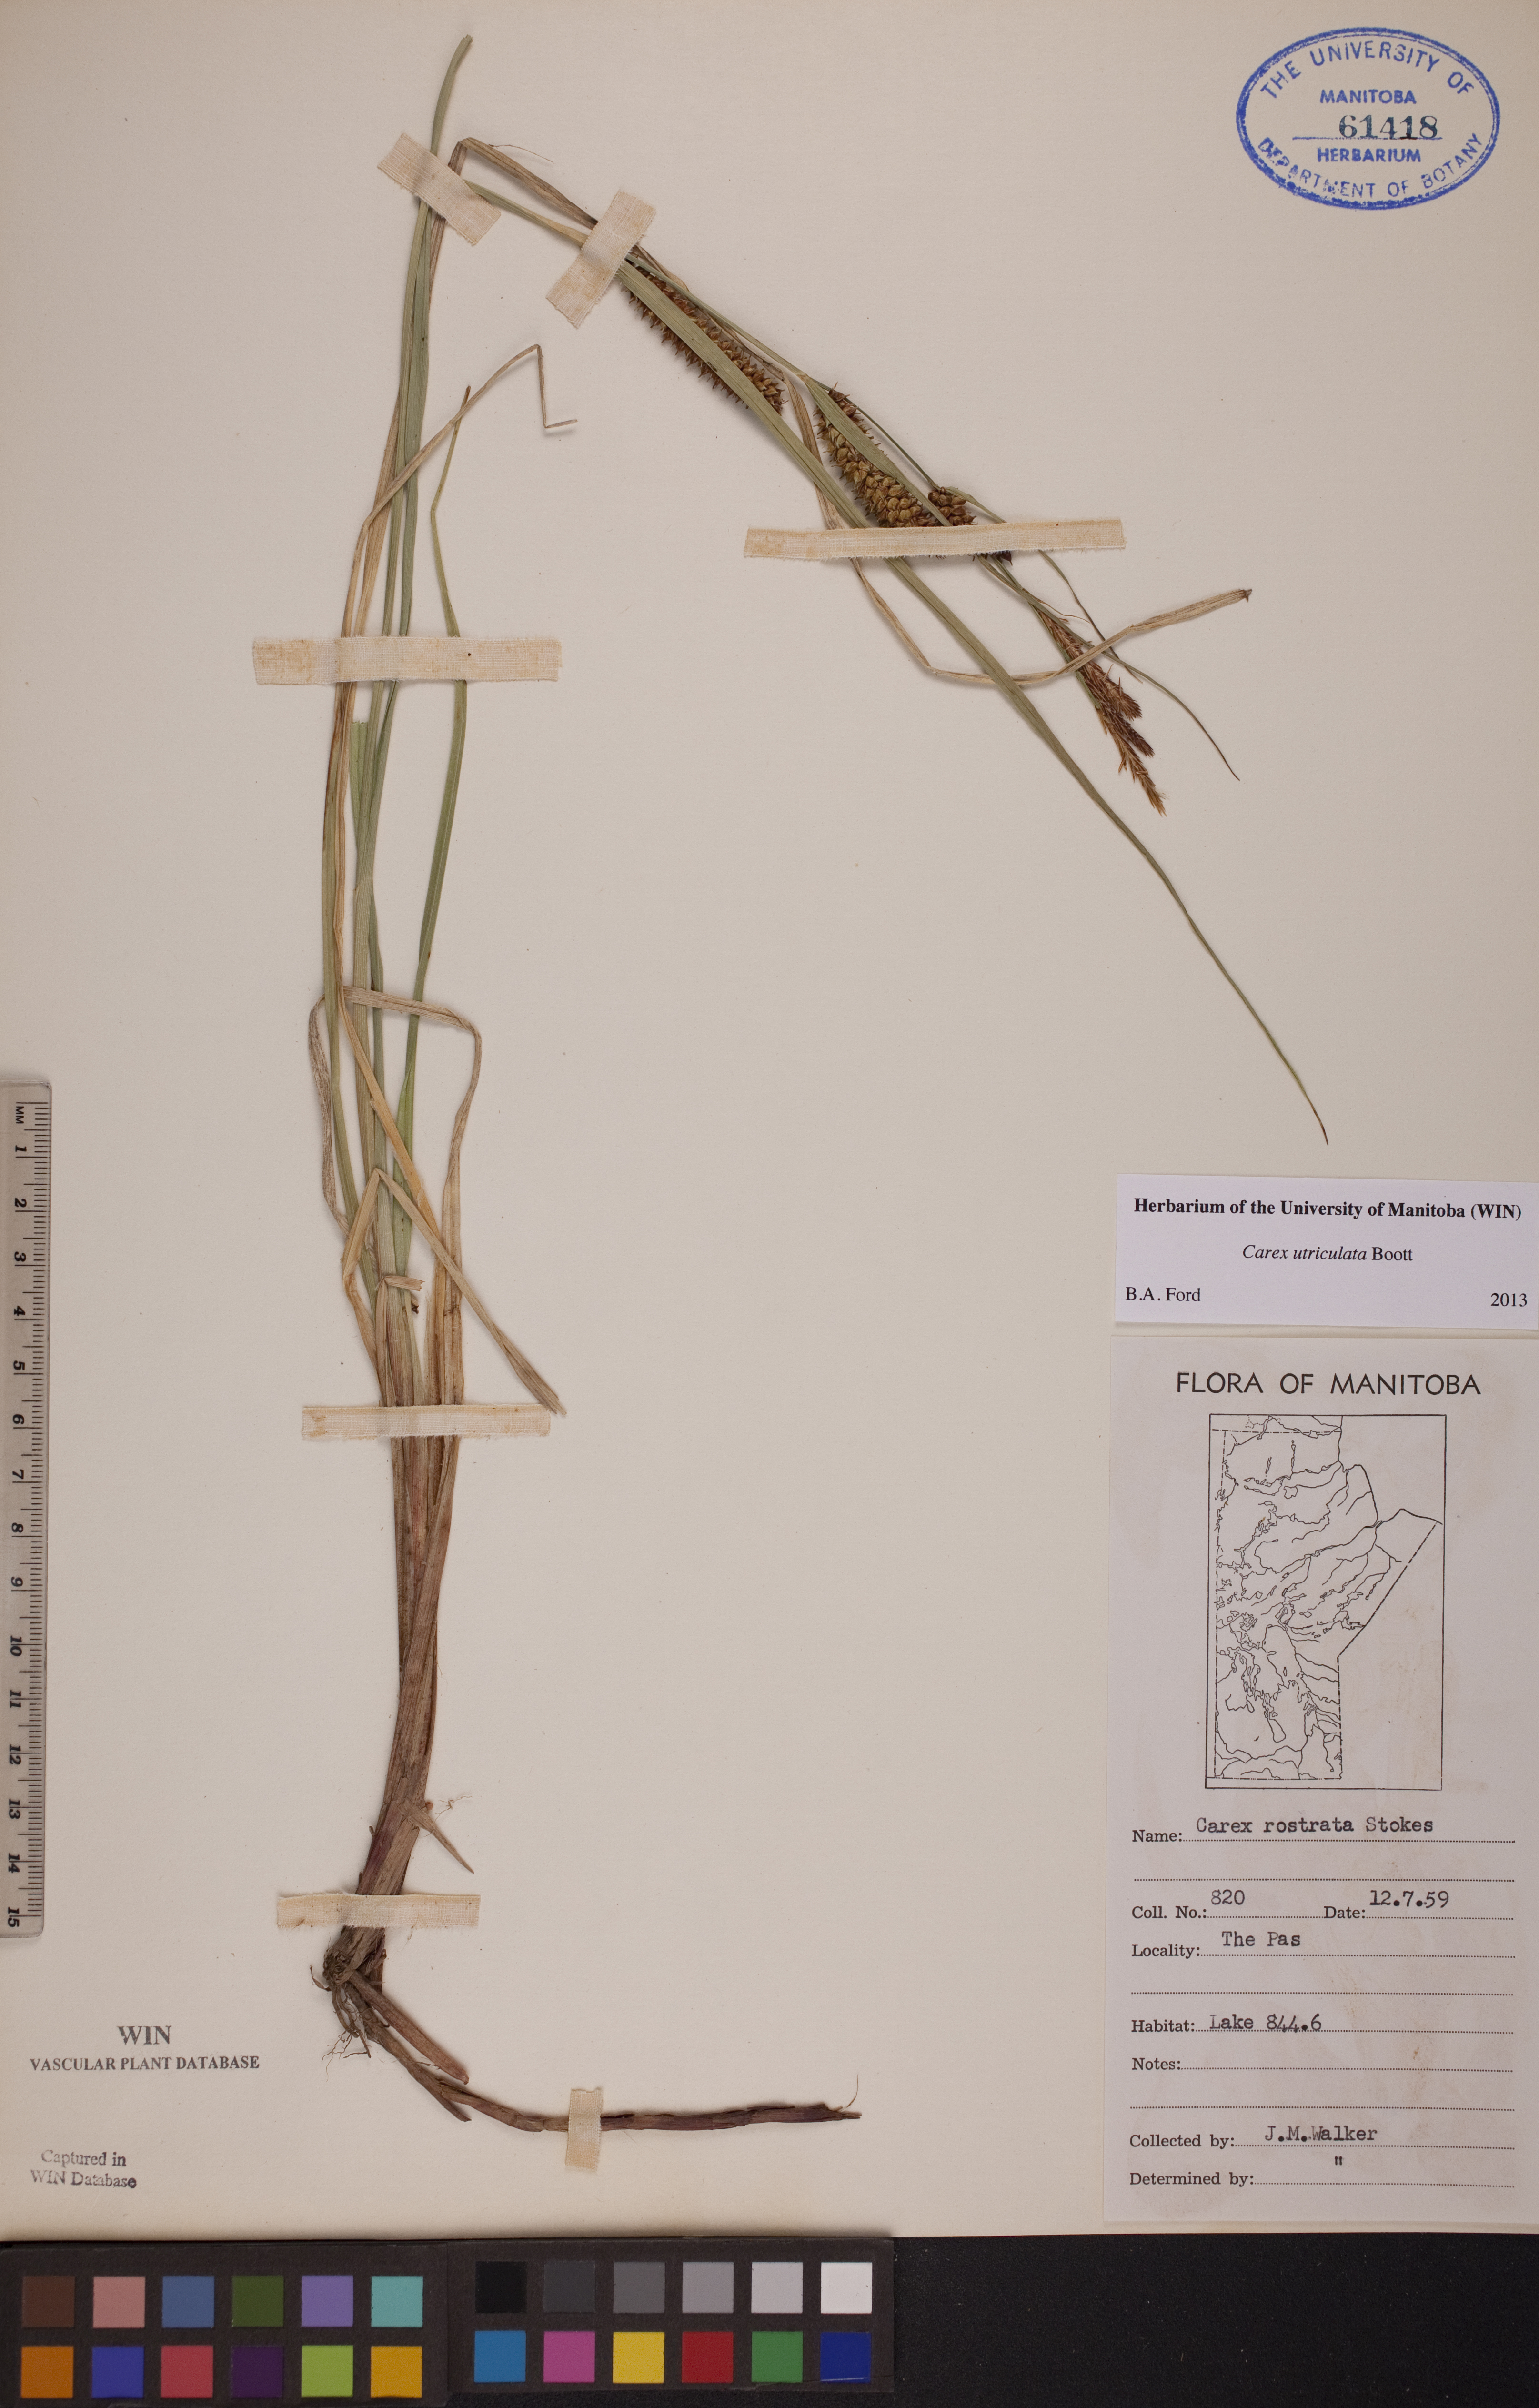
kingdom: Plantae
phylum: Tracheophyta
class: Liliopsida
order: Poales
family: Cyperaceae
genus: Carex
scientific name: Carex utriculata
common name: Beaked sedge
